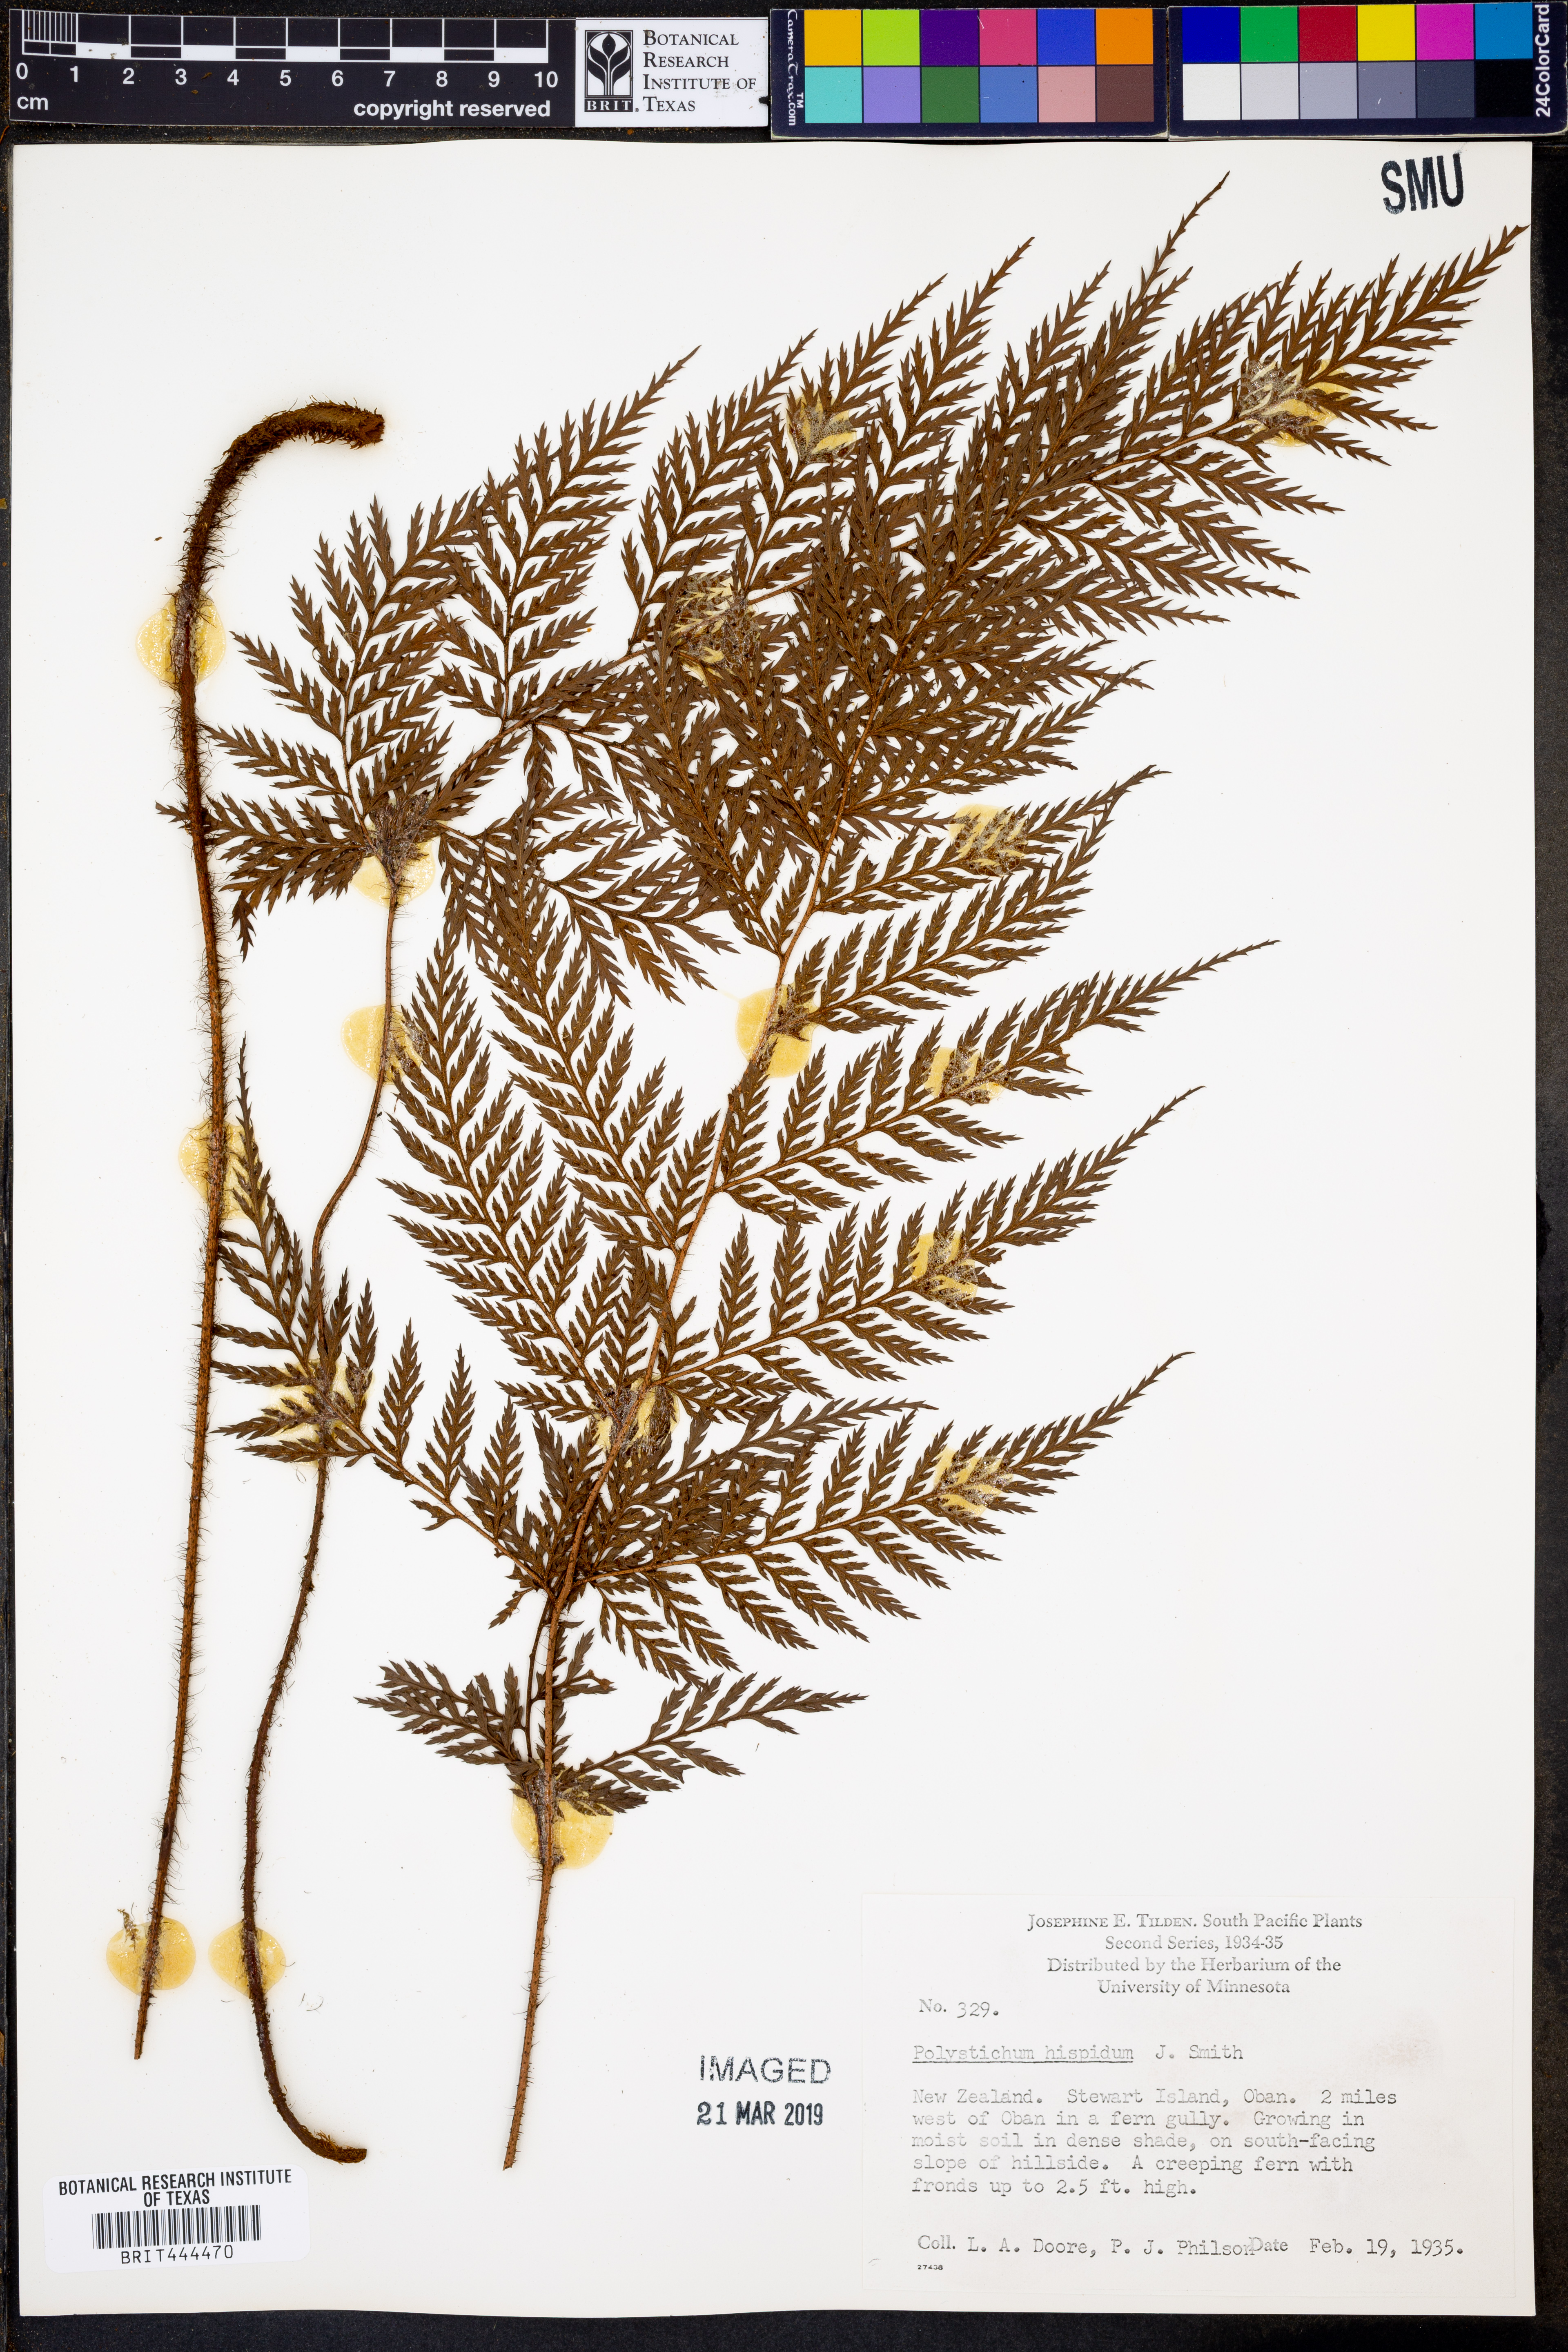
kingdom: Plantae
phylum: Tracheophyta
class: Polypodiopsida
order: Polypodiales
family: Dryopteridaceae
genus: Lastreopsis
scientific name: Lastreopsis hispida
